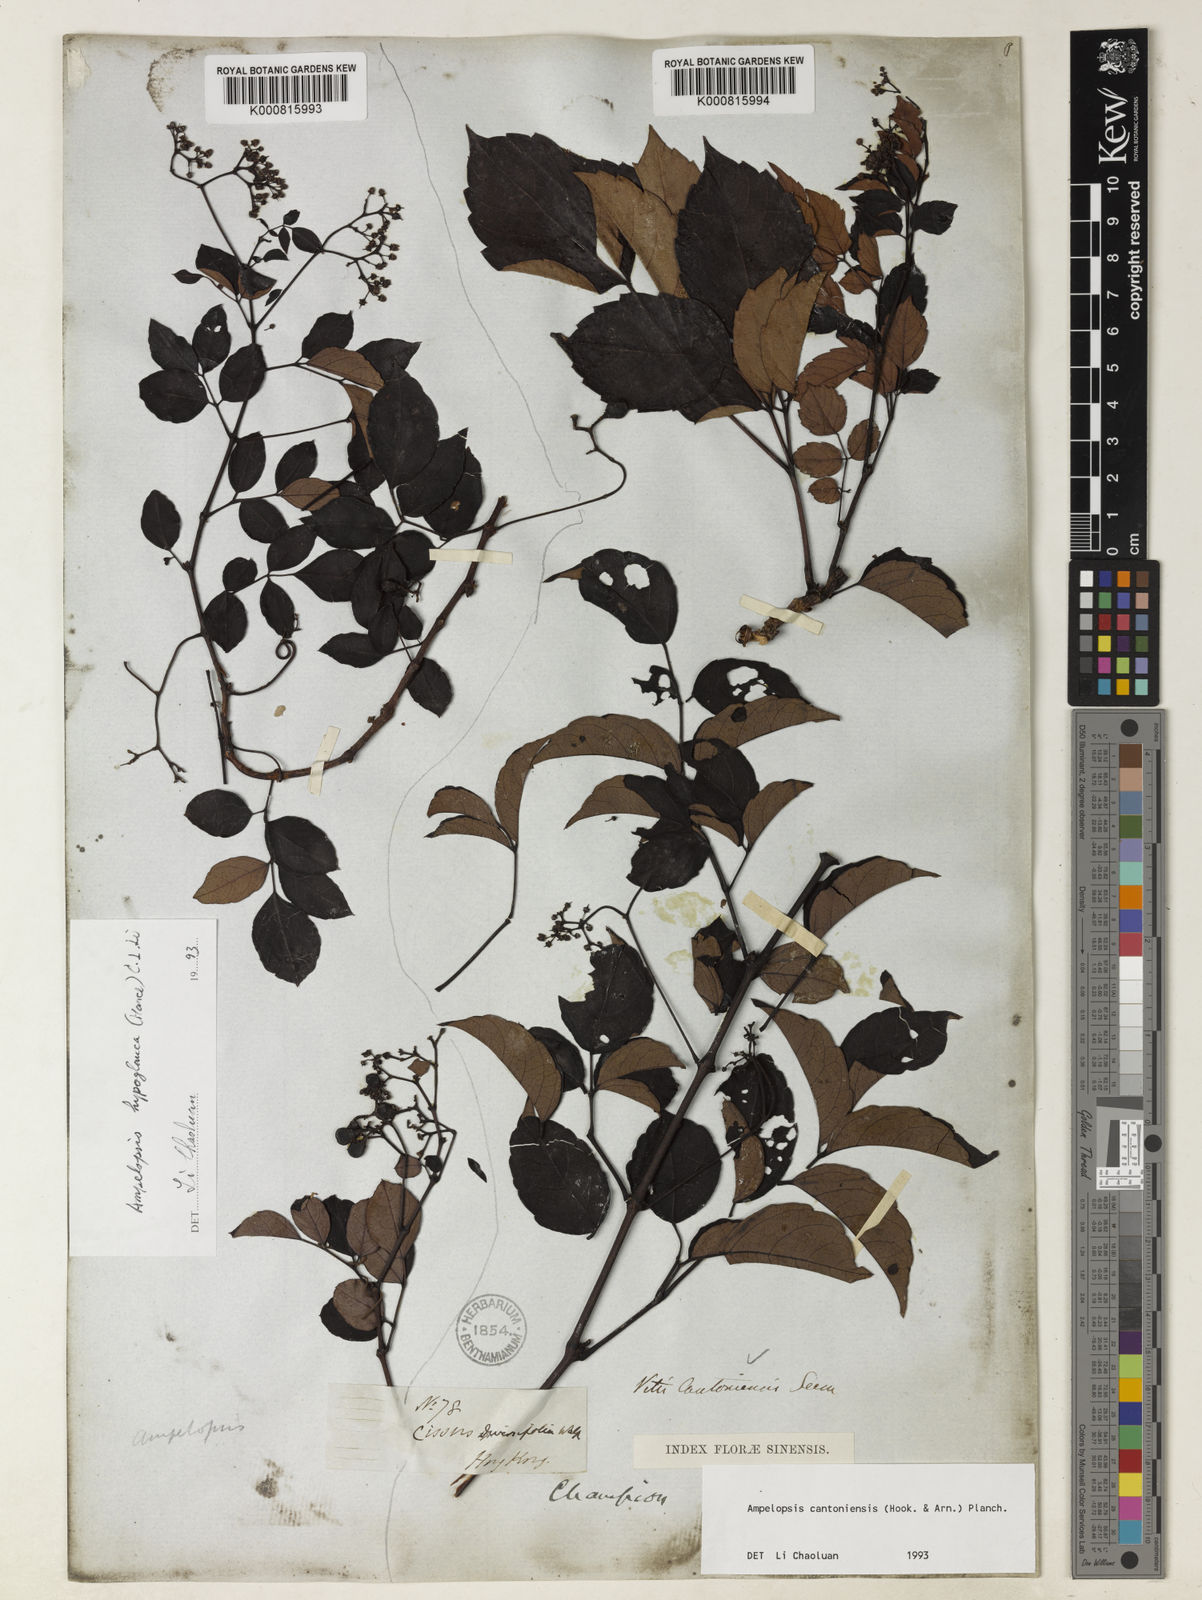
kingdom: Plantae
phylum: Tracheophyta
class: Magnoliopsida
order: Vitales
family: Vitaceae
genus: Ampelopsis
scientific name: Ampelopsis
